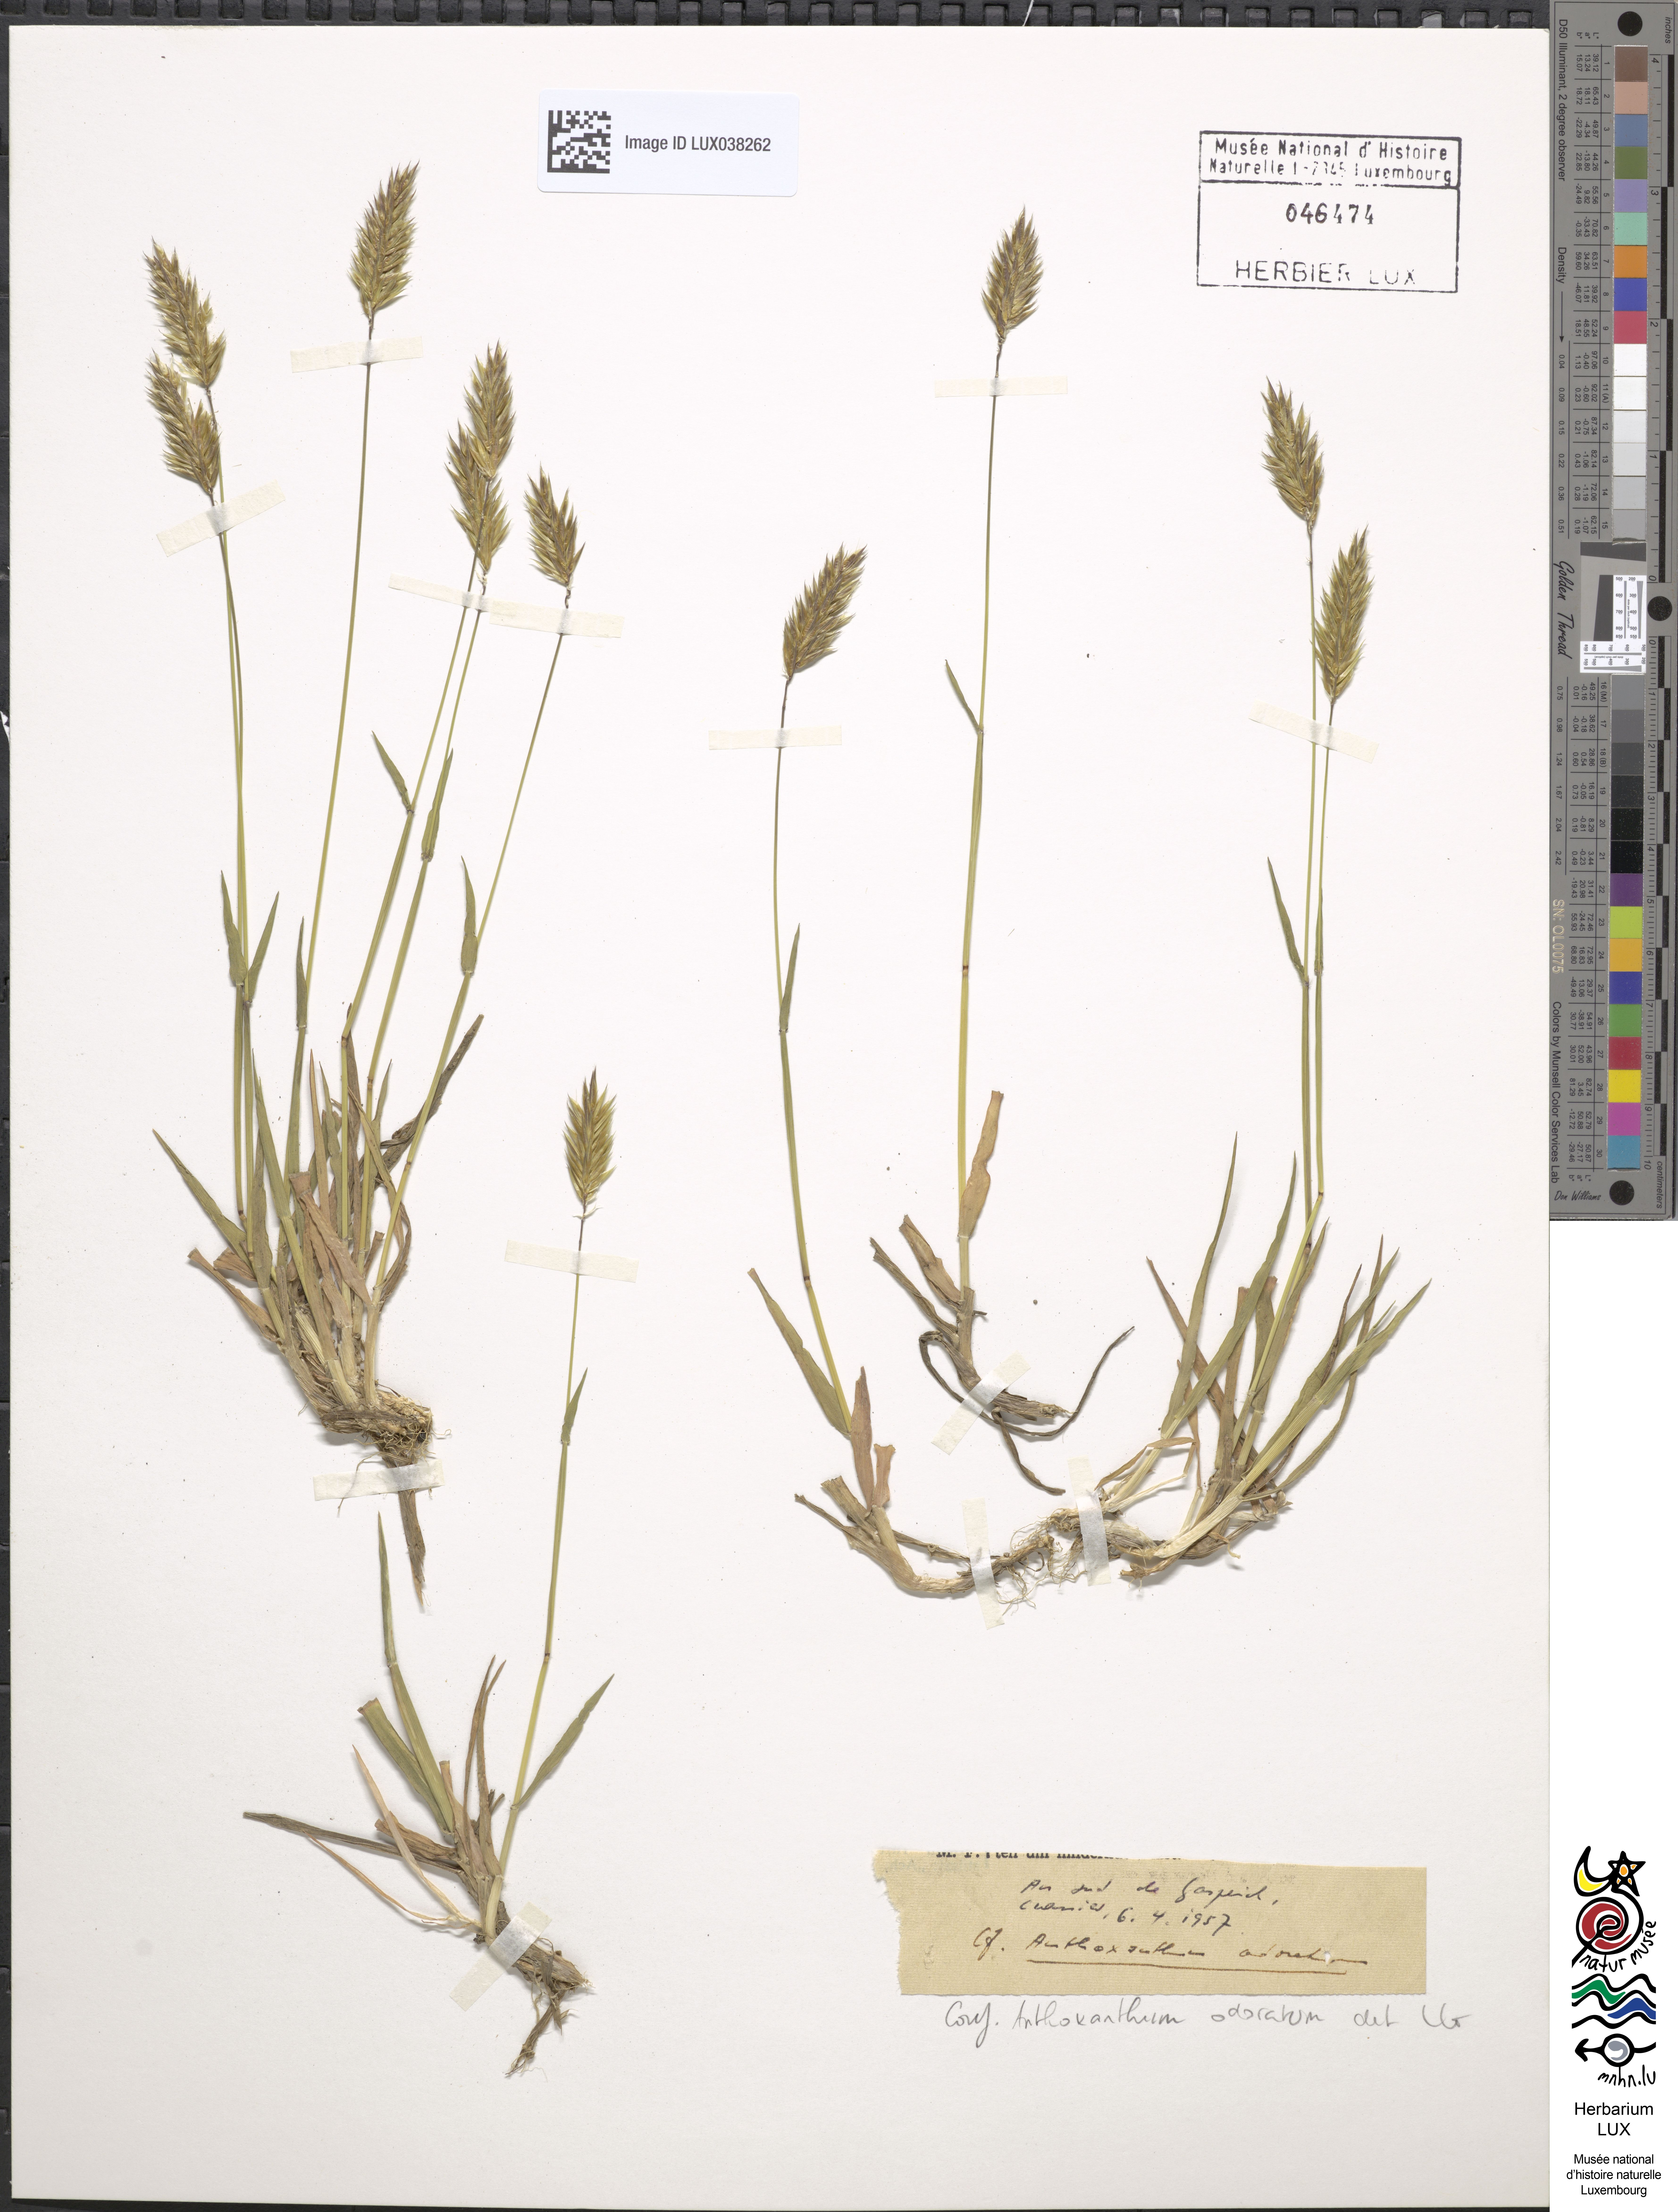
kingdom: Plantae
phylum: Tracheophyta
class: Liliopsida
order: Poales
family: Poaceae
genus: Anthoxanthum
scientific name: Anthoxanthum odoratum
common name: Sweet vernalgrass
